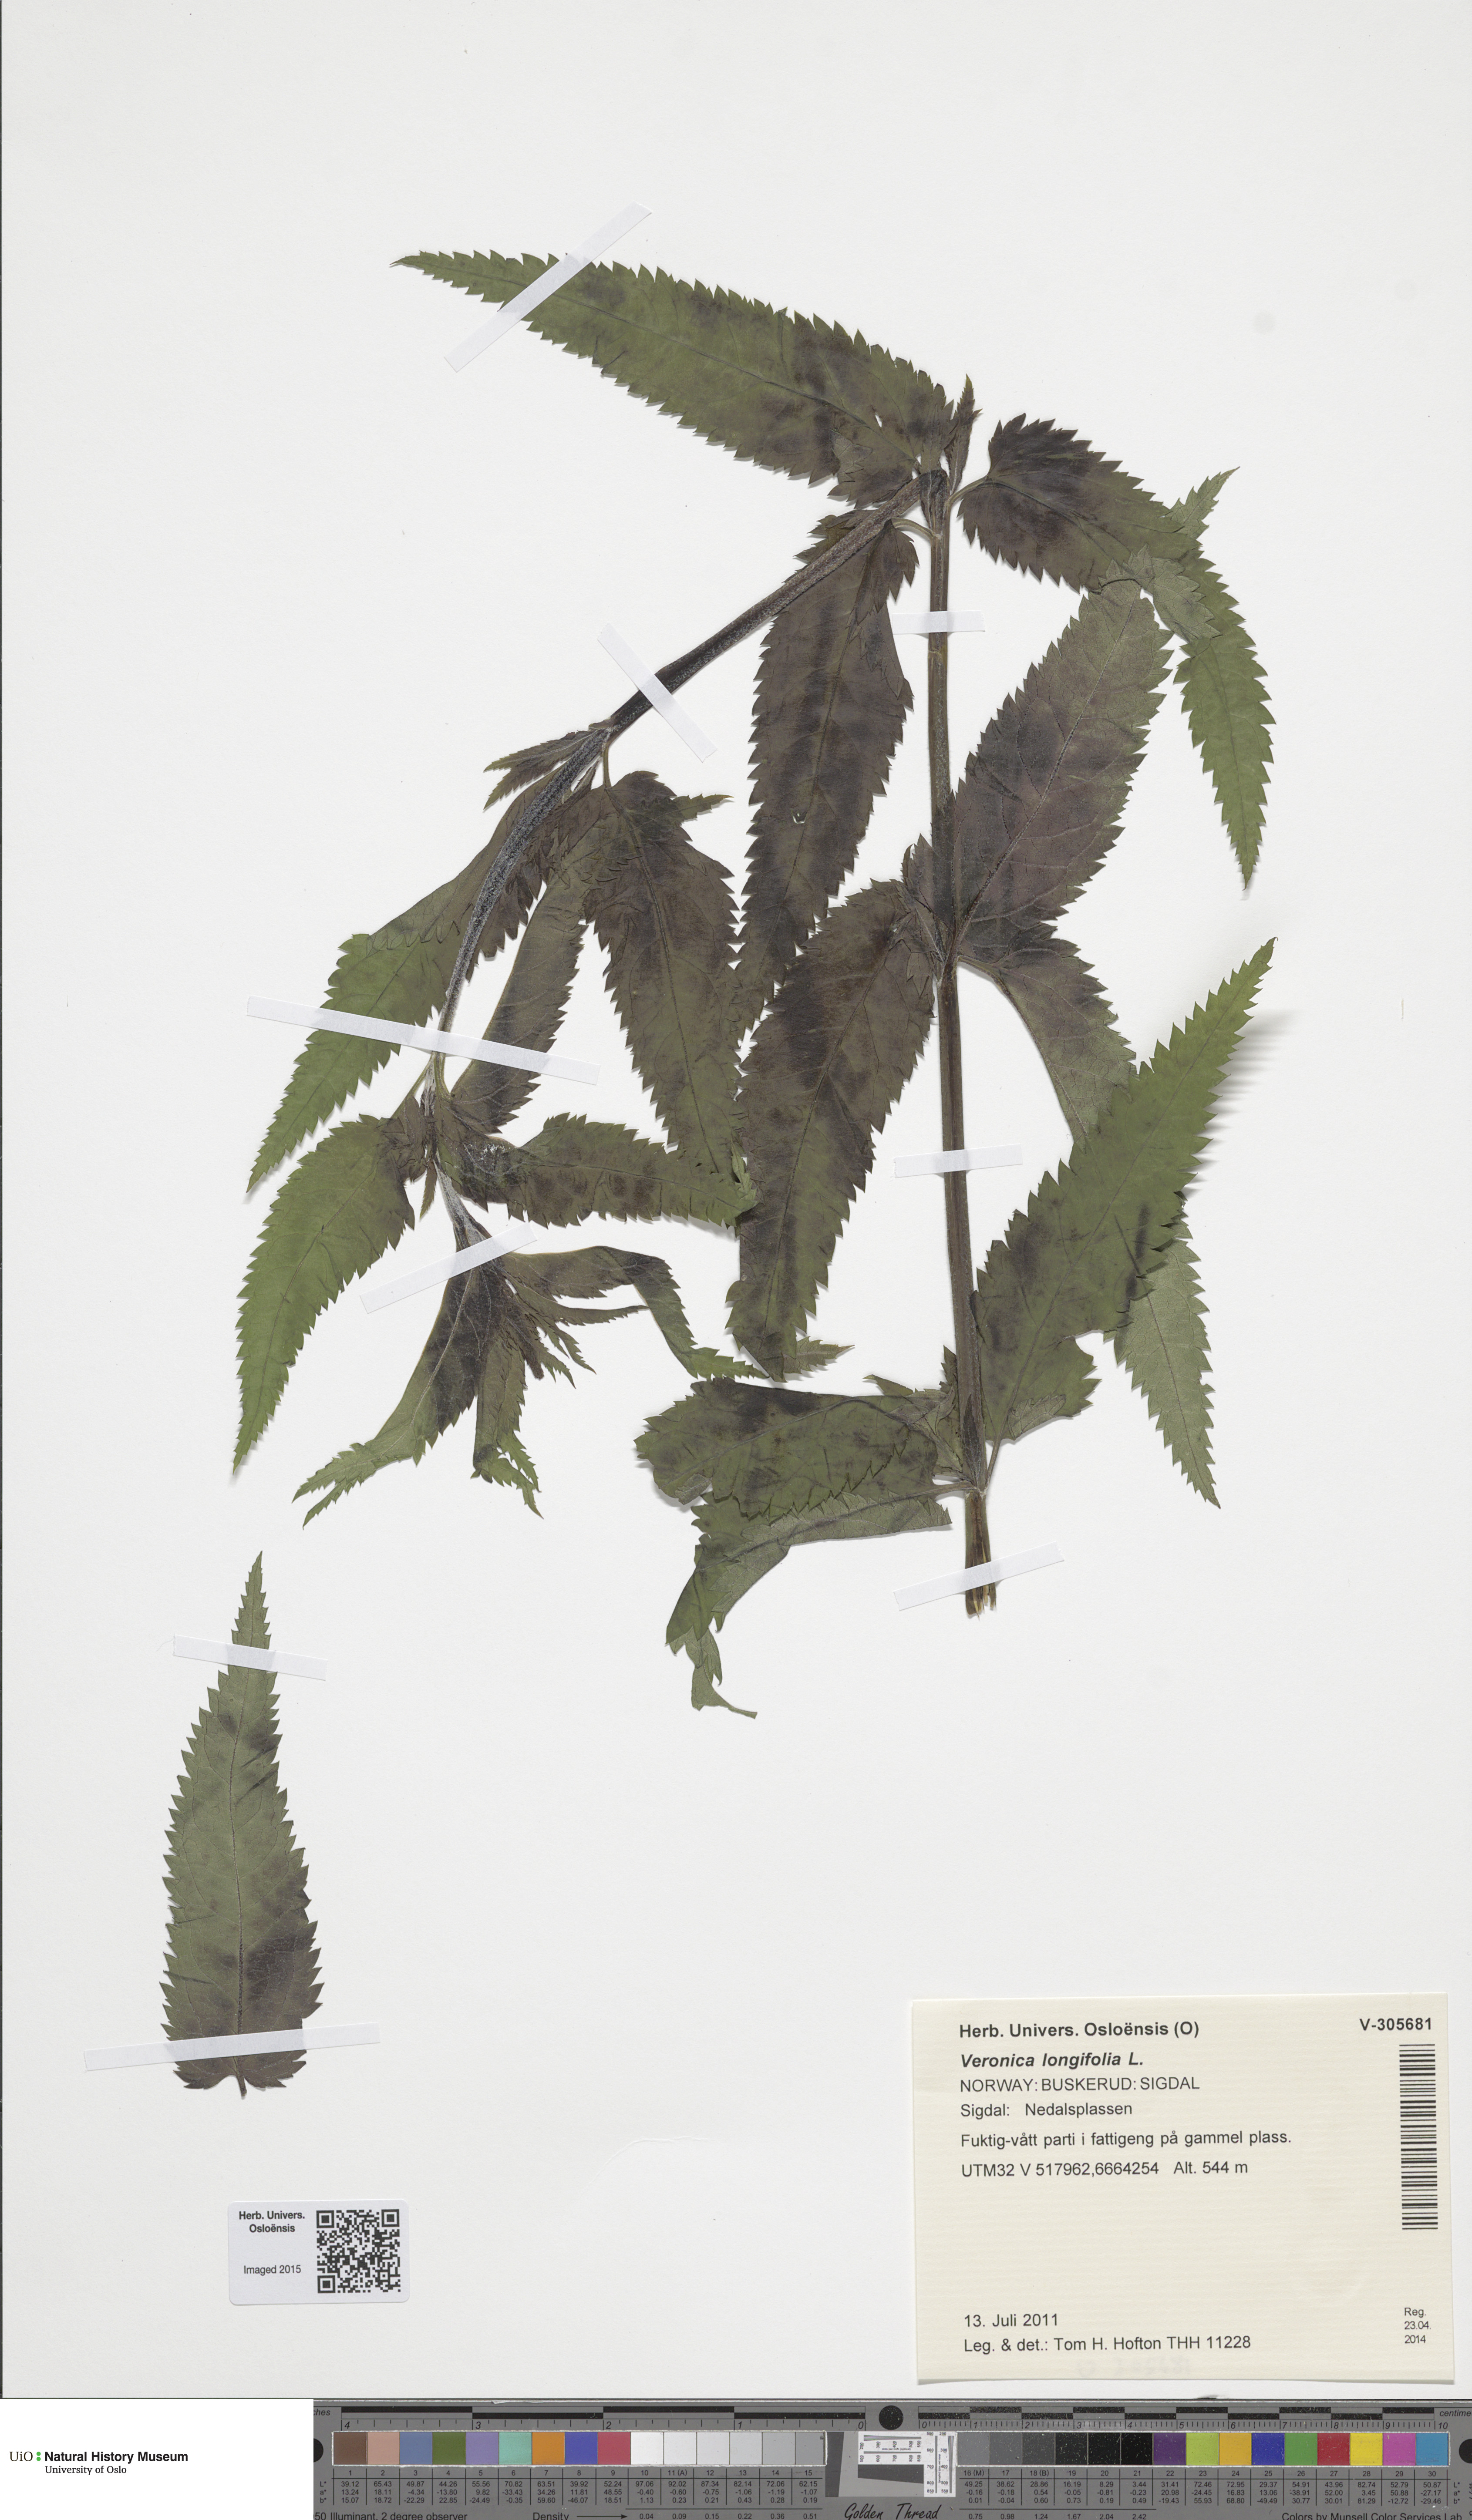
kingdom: Plantae
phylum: Tracheophyta
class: Magnoliopsida
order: Lamiales
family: Plantaginaceae
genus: Veronica
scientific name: Veronica longifolia
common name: Garden speedwell
